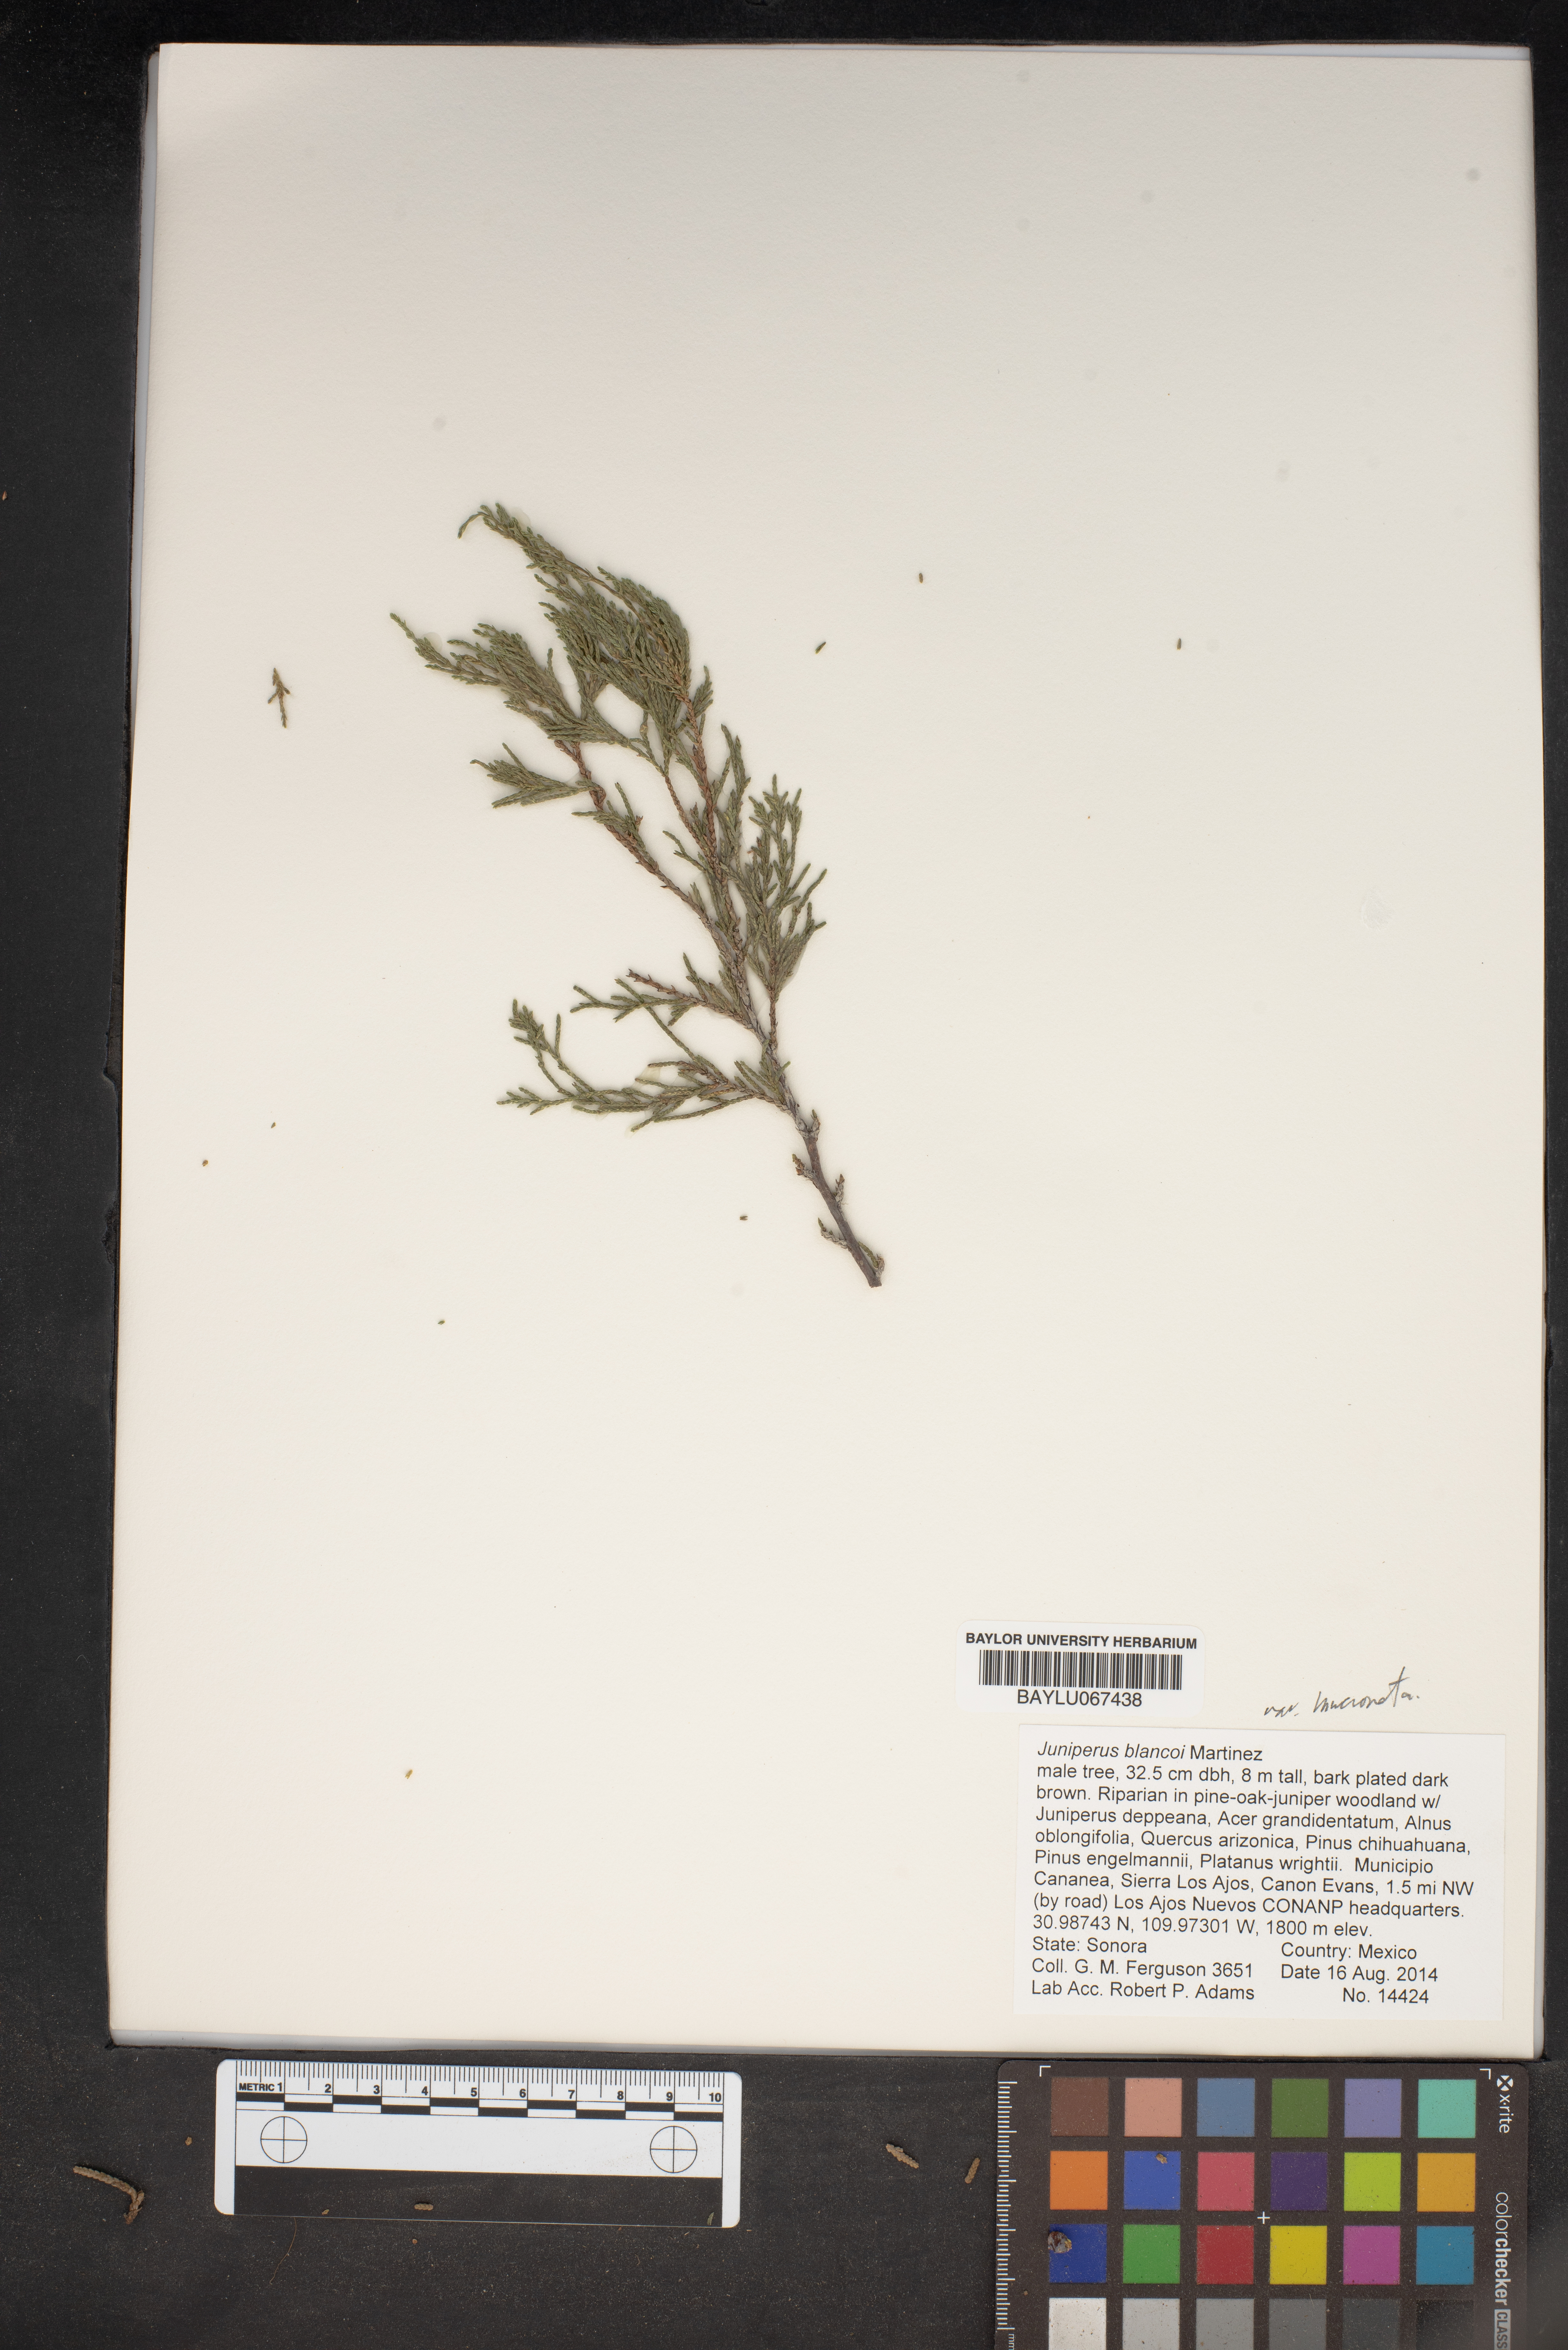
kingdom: Plantae
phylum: Tracheophyta
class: Pinopsida
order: Pinales
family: Cupressaceae
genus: Juniperus
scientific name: Juniperus blancoi
